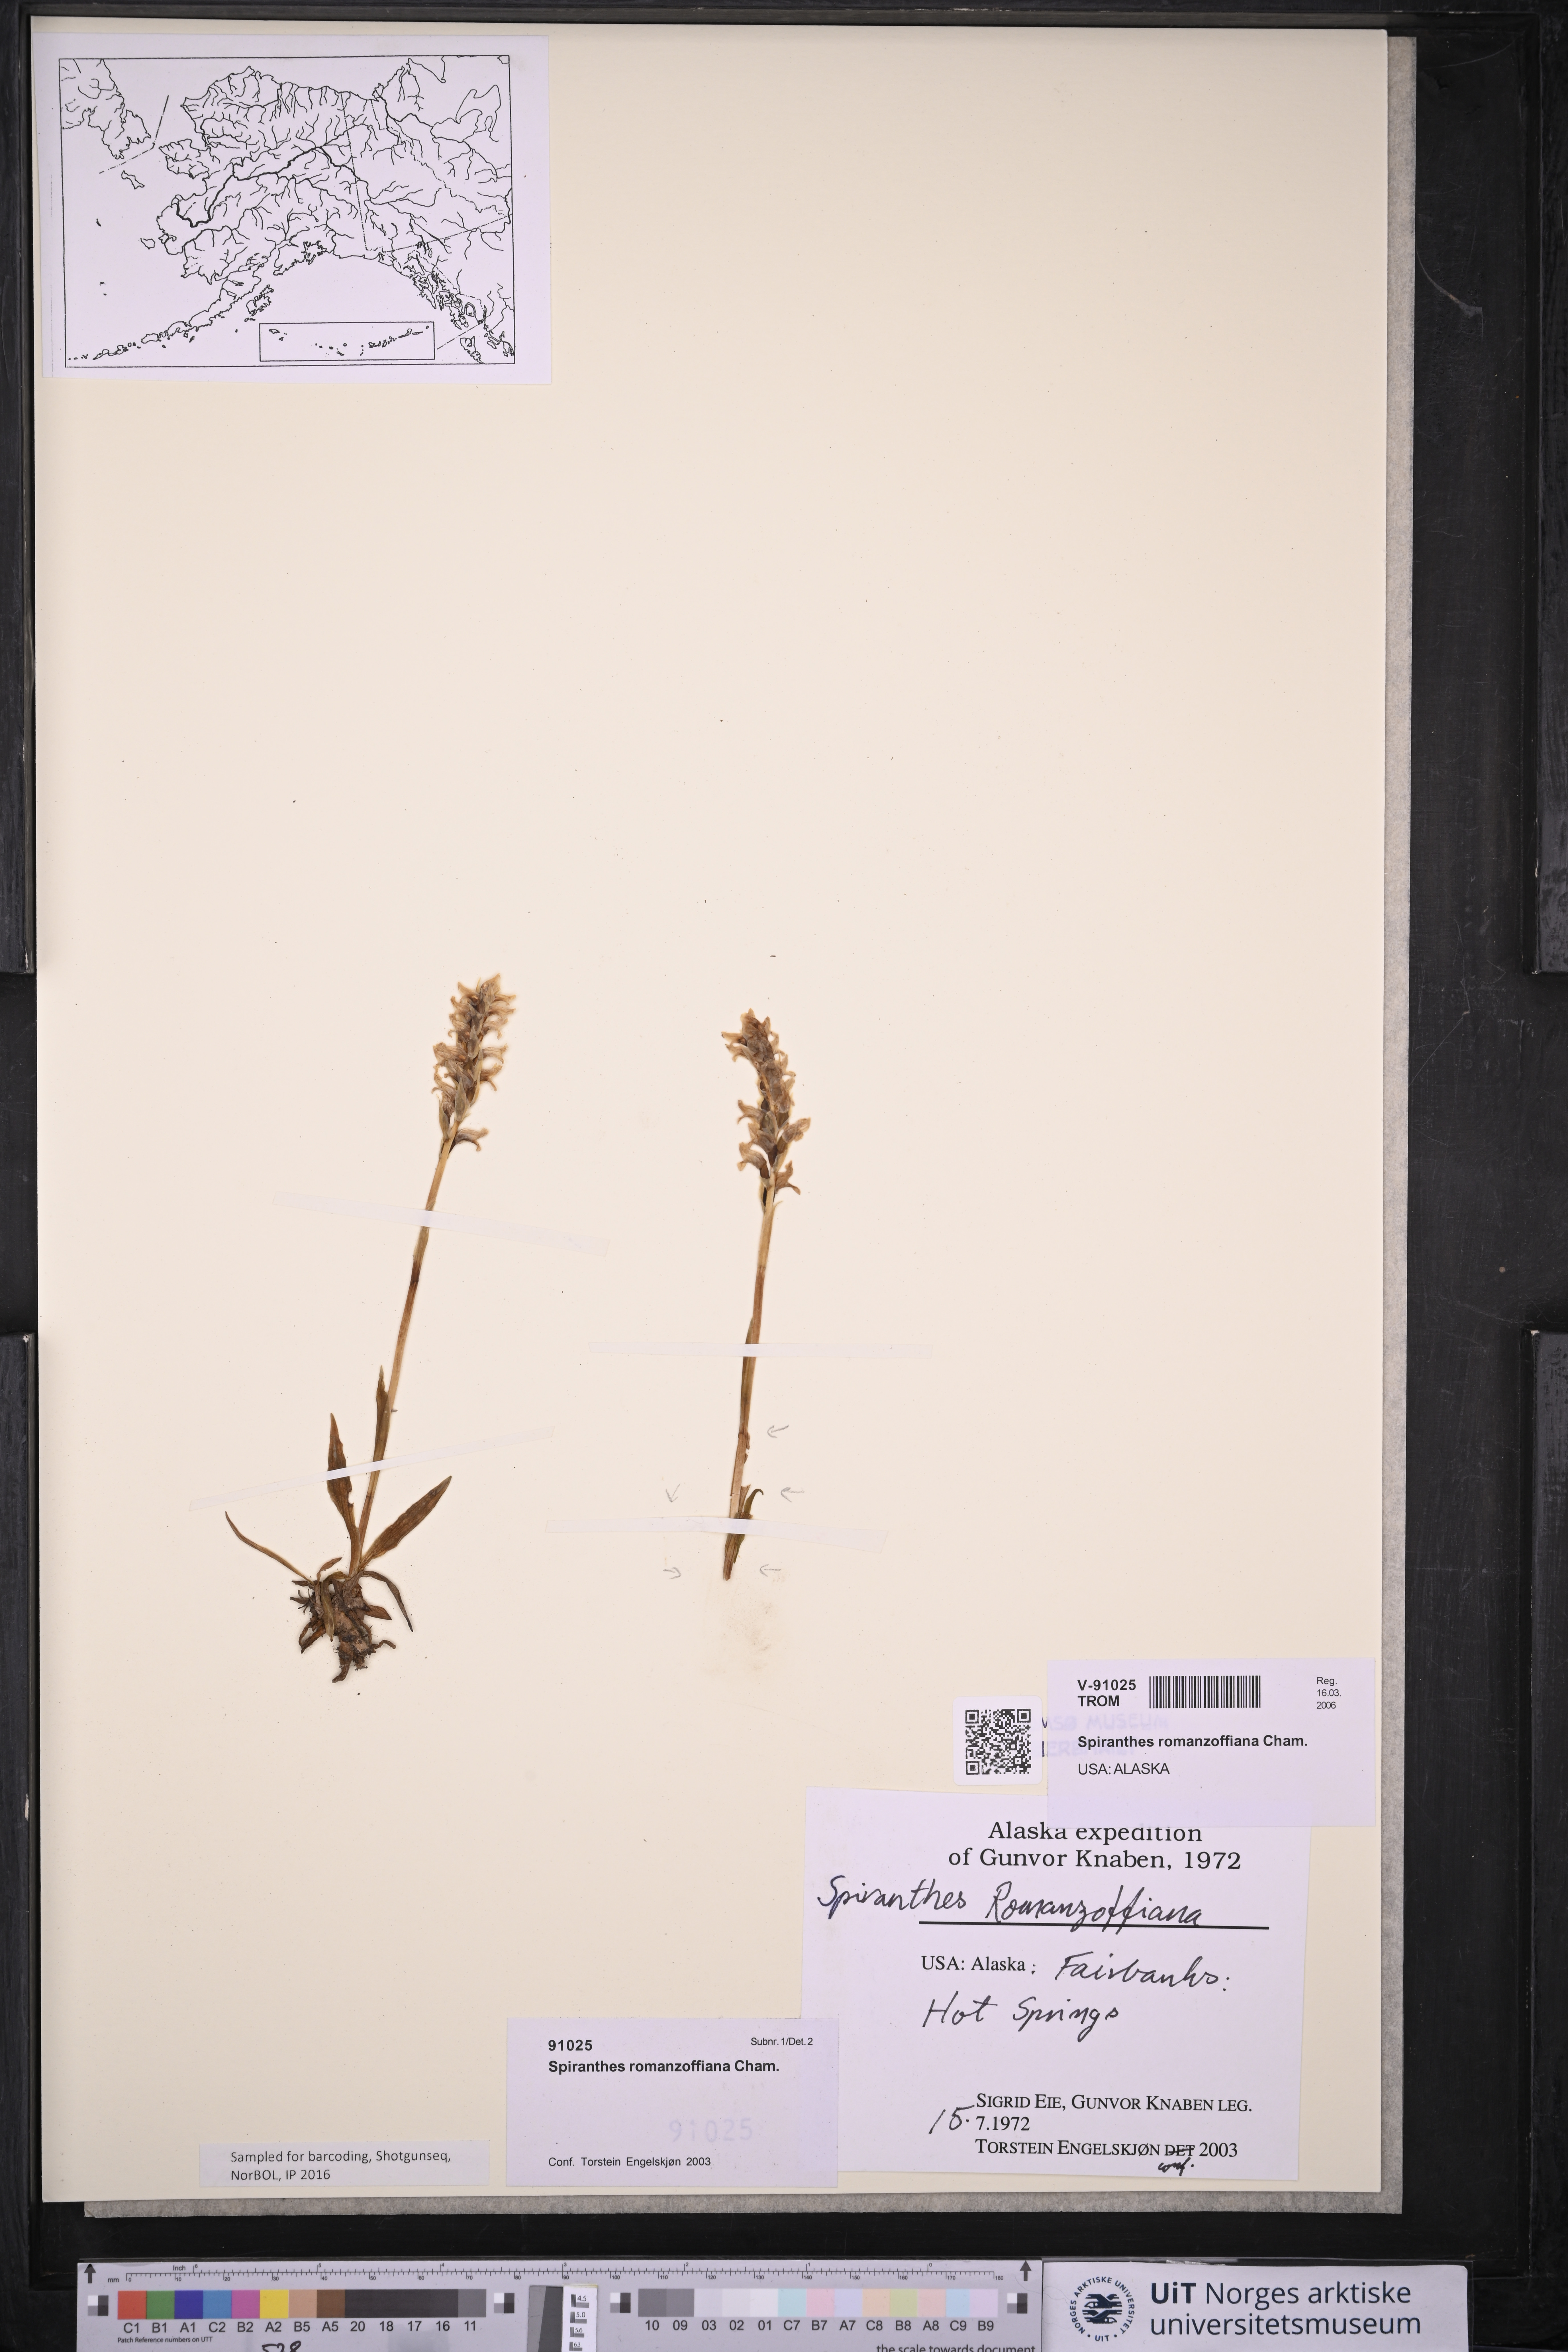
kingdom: Plantae
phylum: Tracheophyta
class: Liliopsida
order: Asparagales
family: Orchidaceae
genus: Spiranthes
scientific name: Spiranthes romanzoffiana
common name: Irish lady's-tresses
